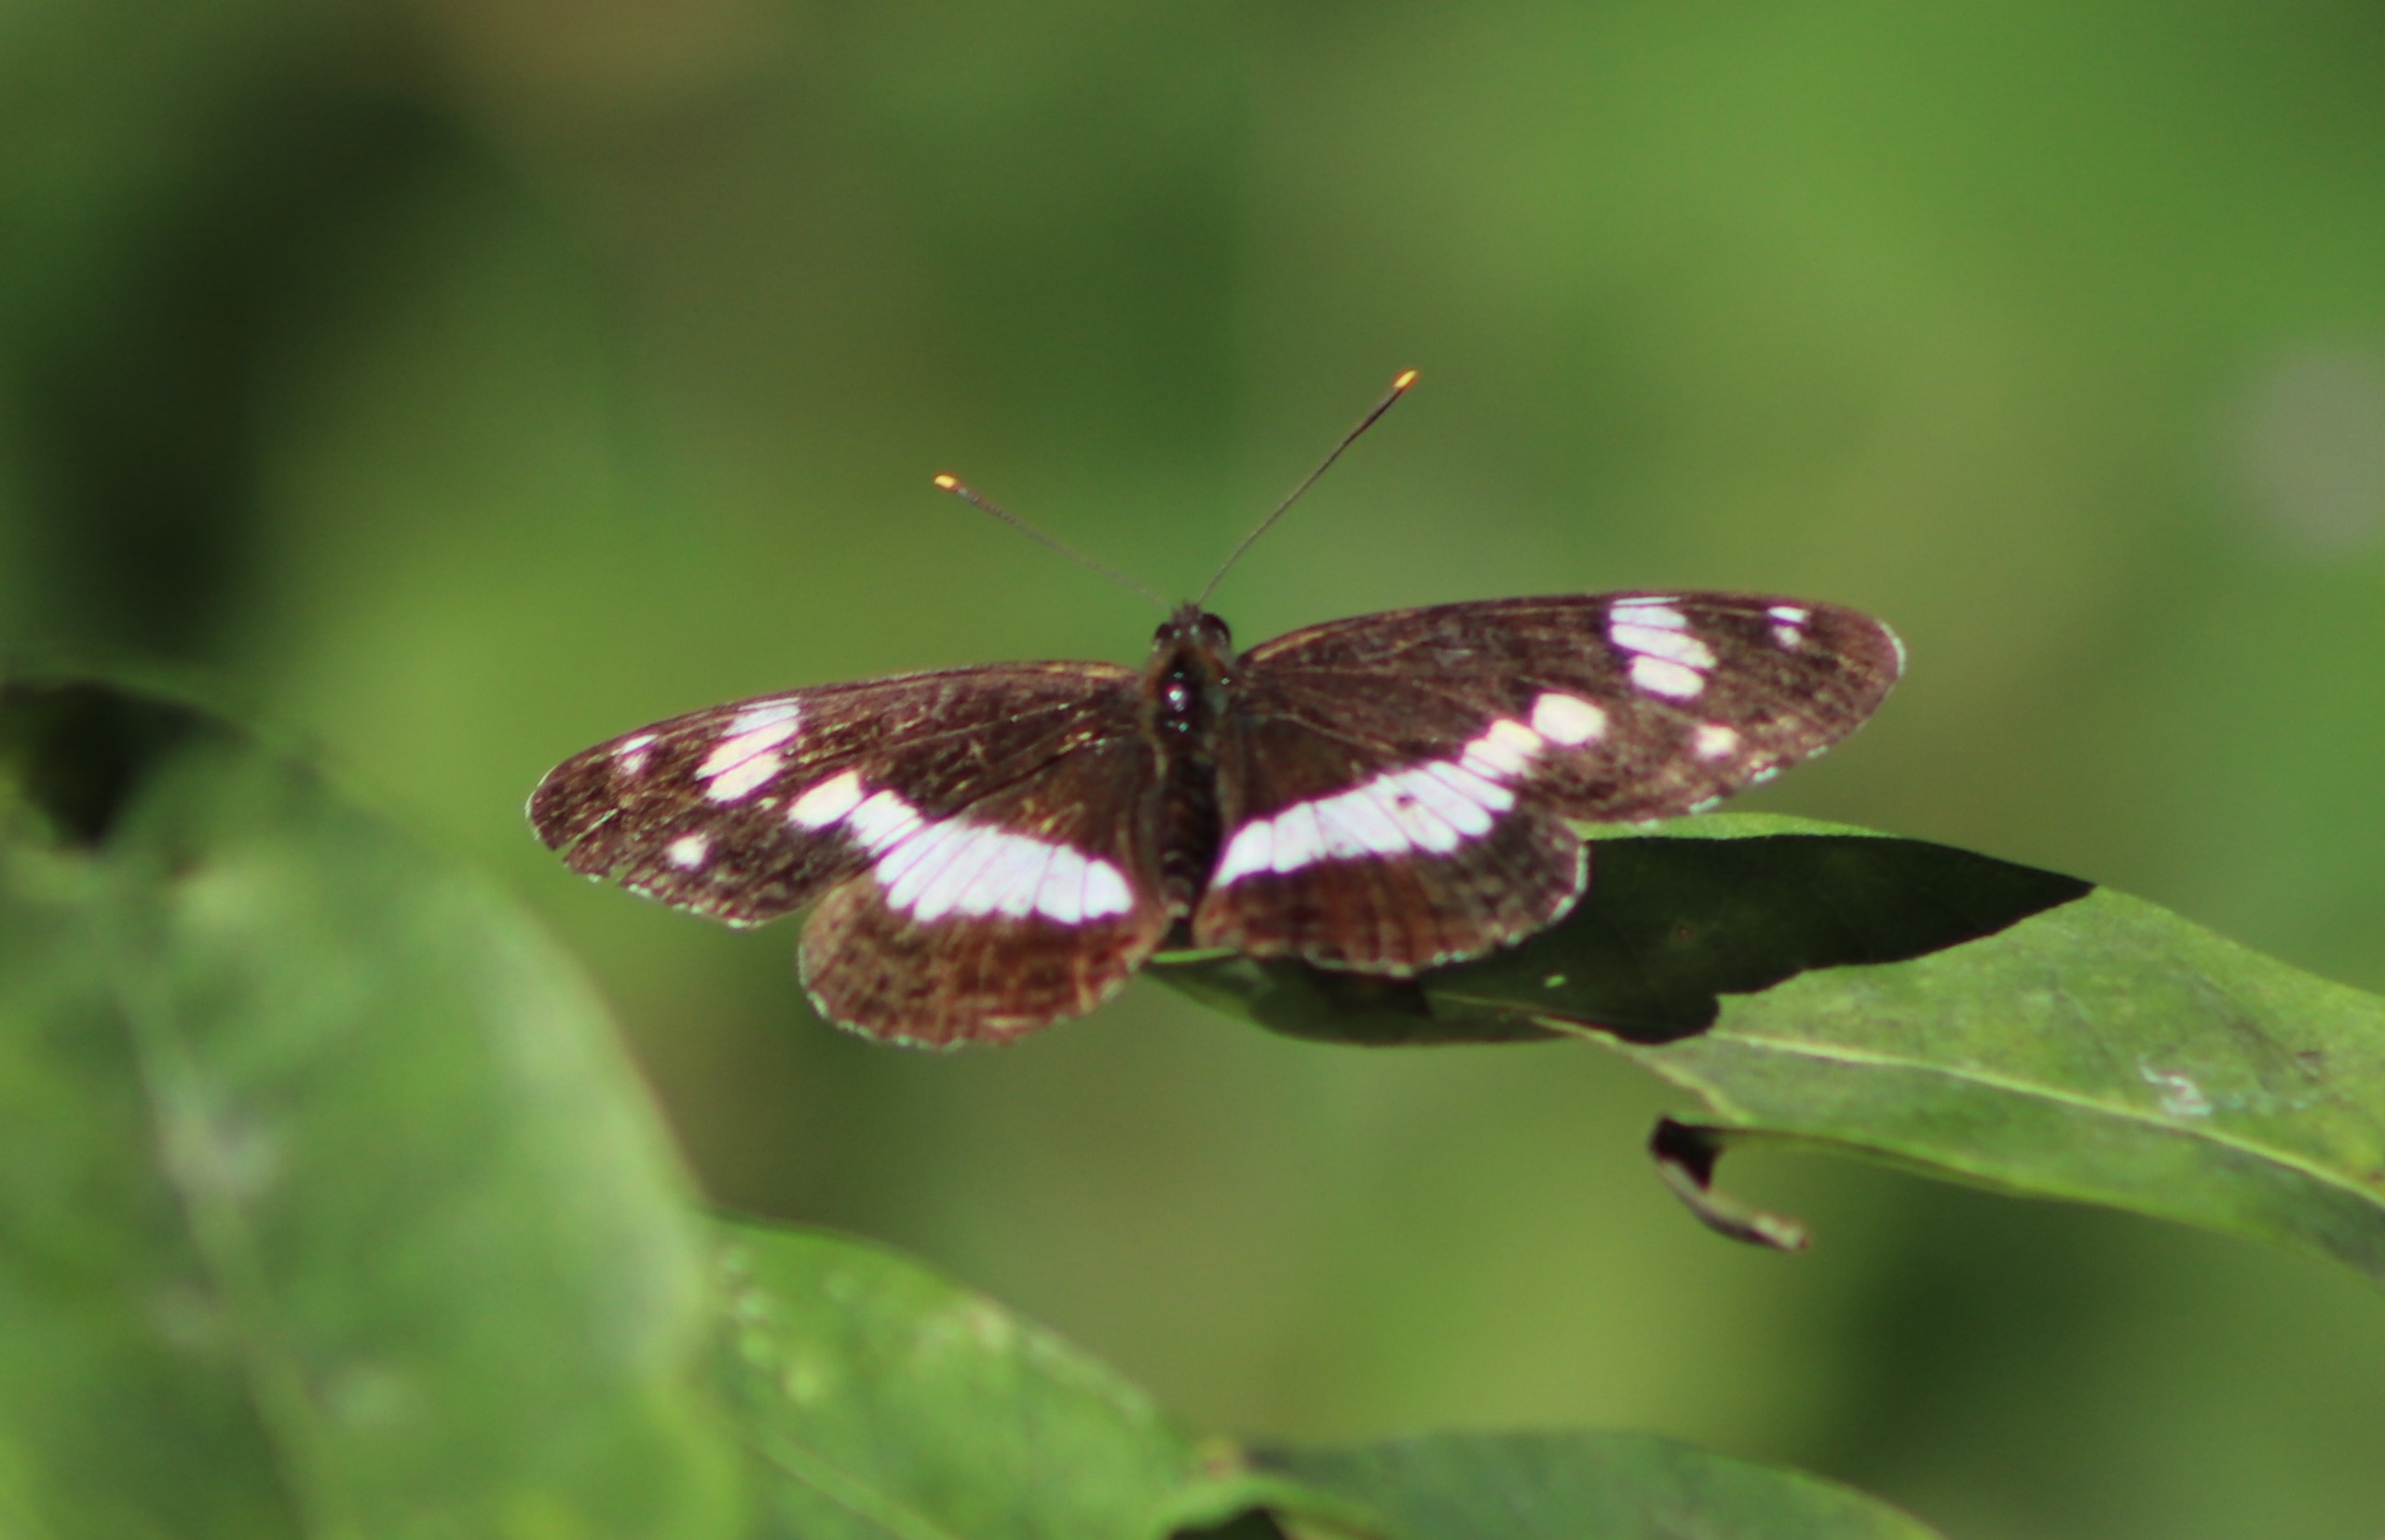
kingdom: Animalia
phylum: Arthropoda
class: Insecta
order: Lepidoptera
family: Nymphalidae
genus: Ladoga
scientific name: Ladoga camilla
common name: Hvid admiral
